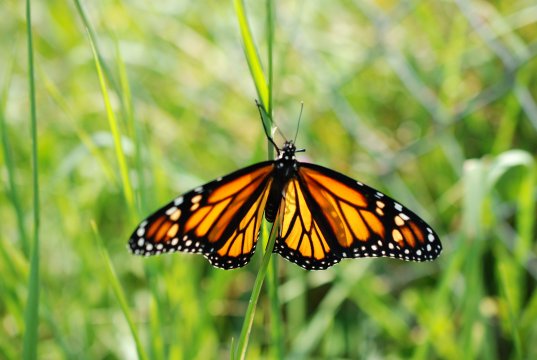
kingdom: Animalia
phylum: Arthropoda
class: Insecta
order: Lepidoptera
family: Nymphalidae
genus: Danaus
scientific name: Danaus plexippus
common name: Monarch
